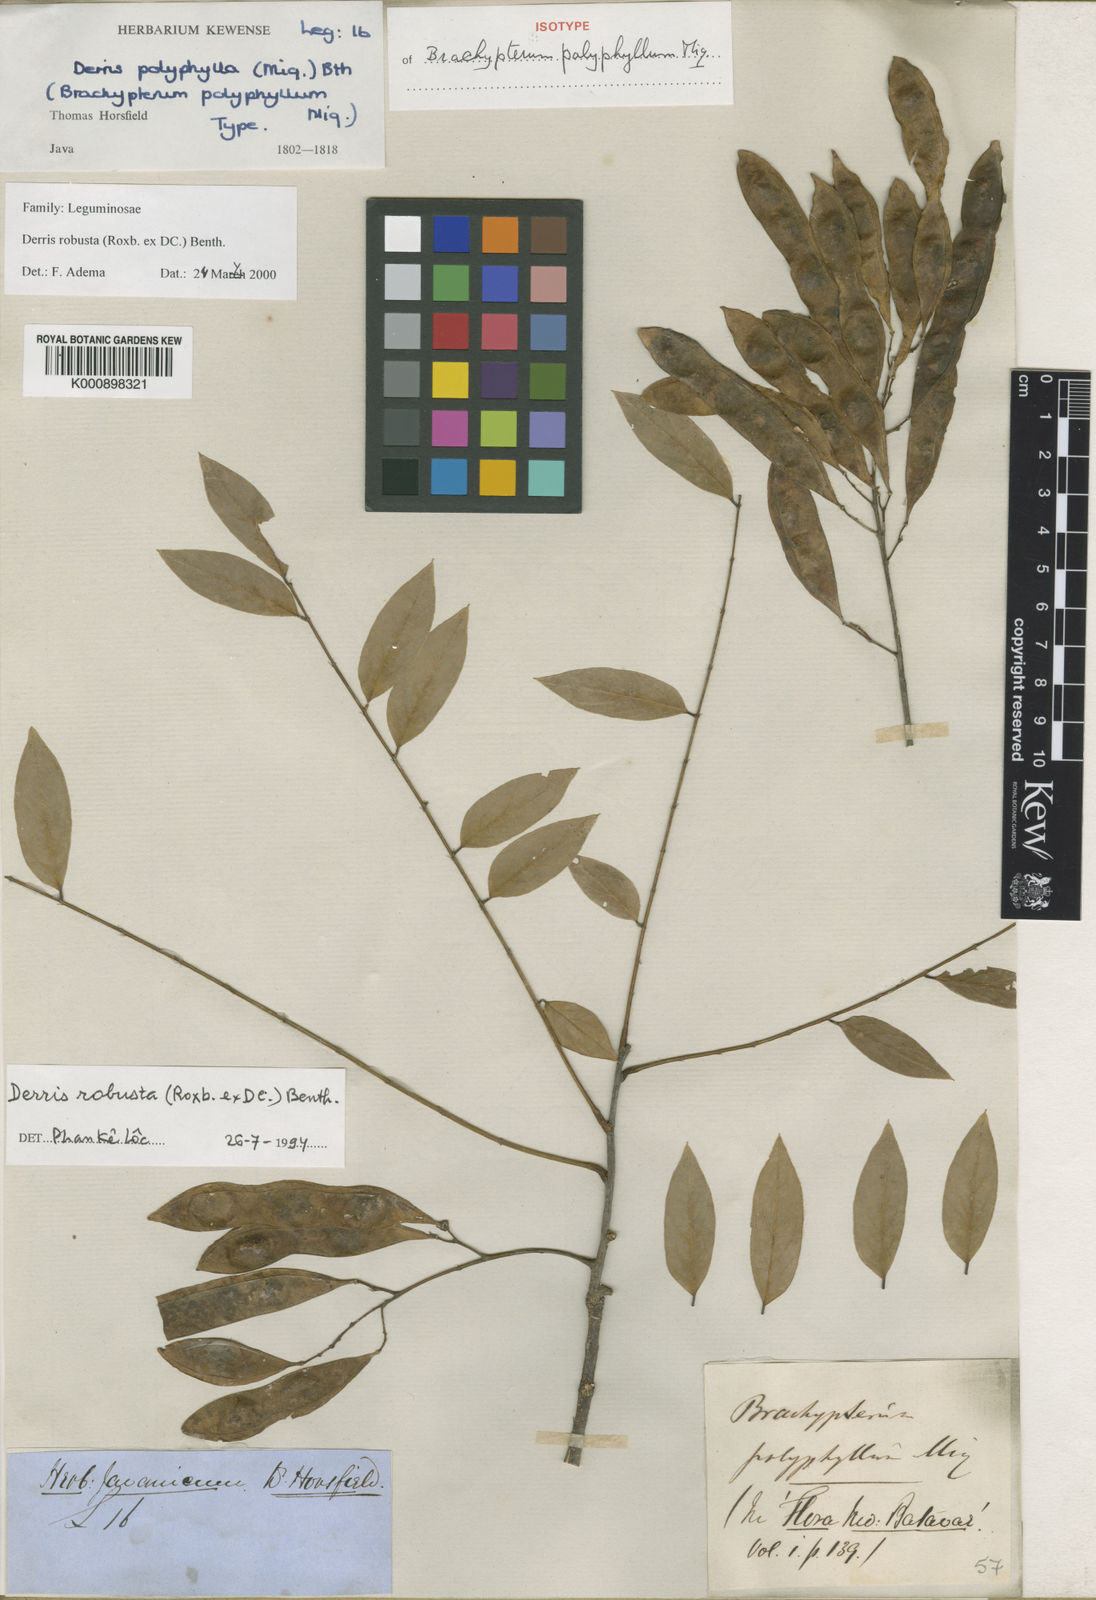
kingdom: Plantae
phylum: Tracheophyta
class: Magnoliopsida
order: Fabales
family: Fabaceae
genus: Brachypterum
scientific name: Brachypterum robustum
